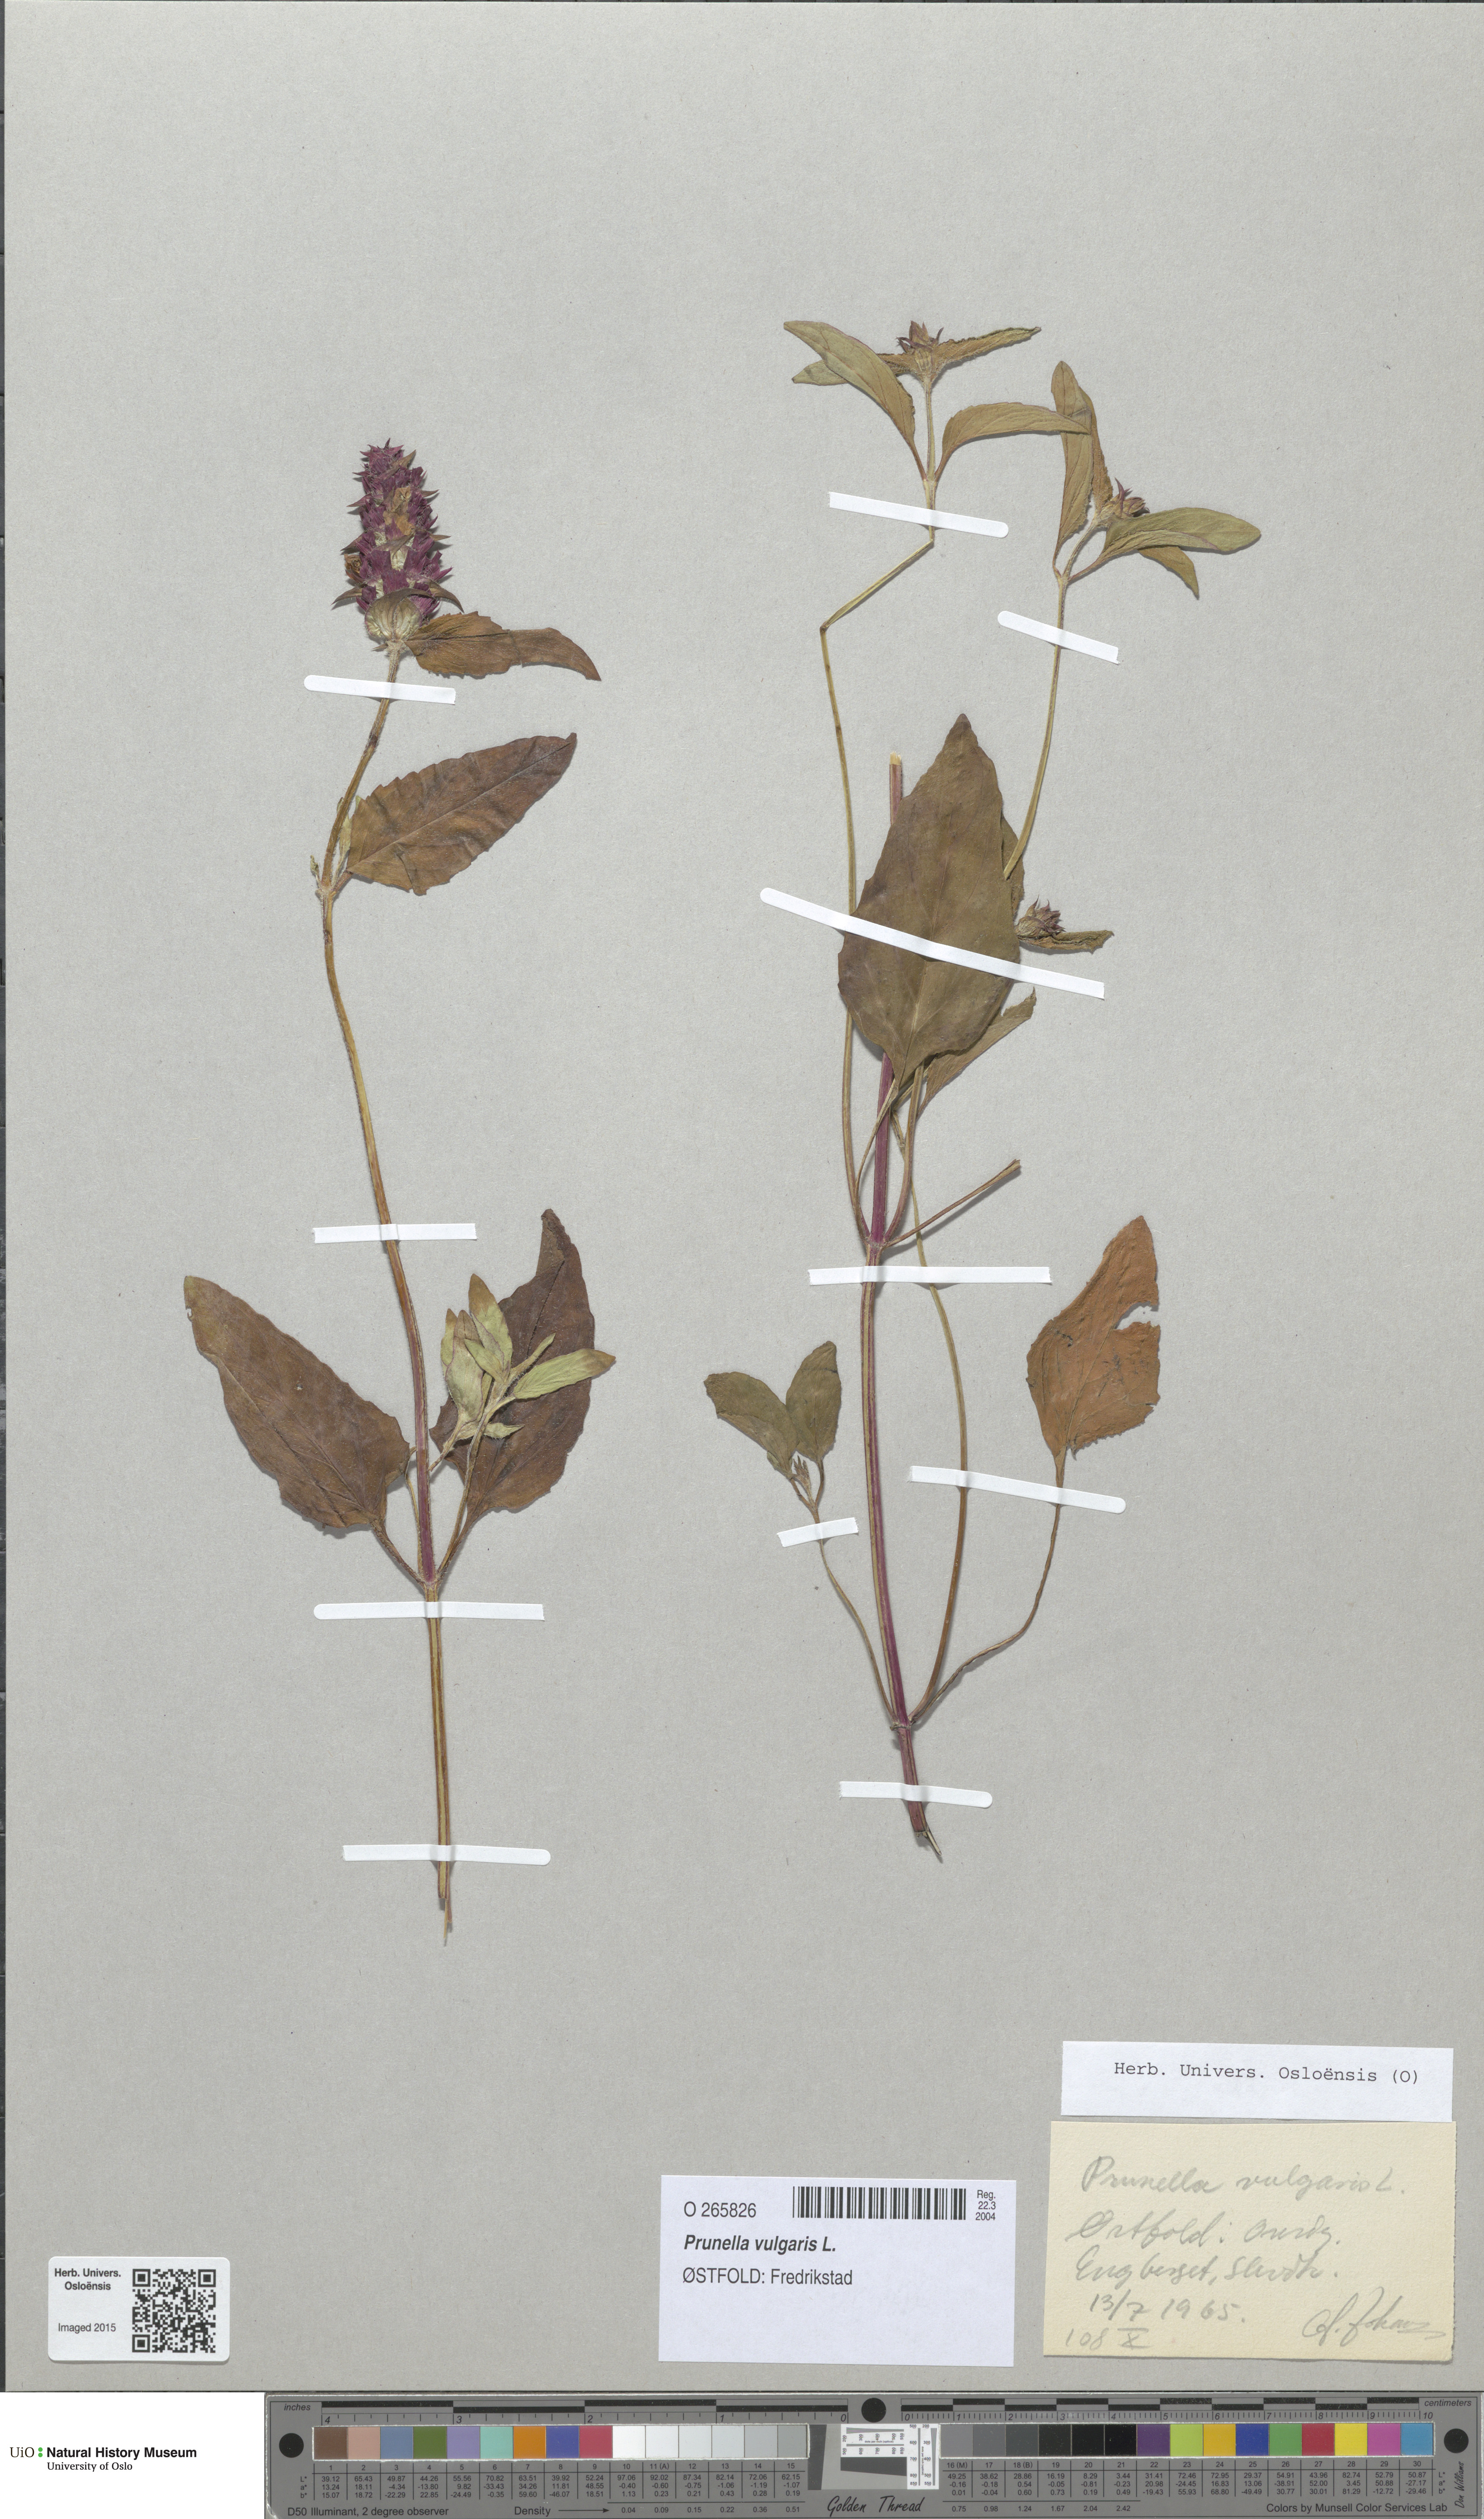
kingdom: Plantae
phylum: Tracheophyta
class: Magnoliopsida
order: Lamiales
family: Lamiaceae
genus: Prunella
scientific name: Prunella vulgaris
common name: Heal-all
